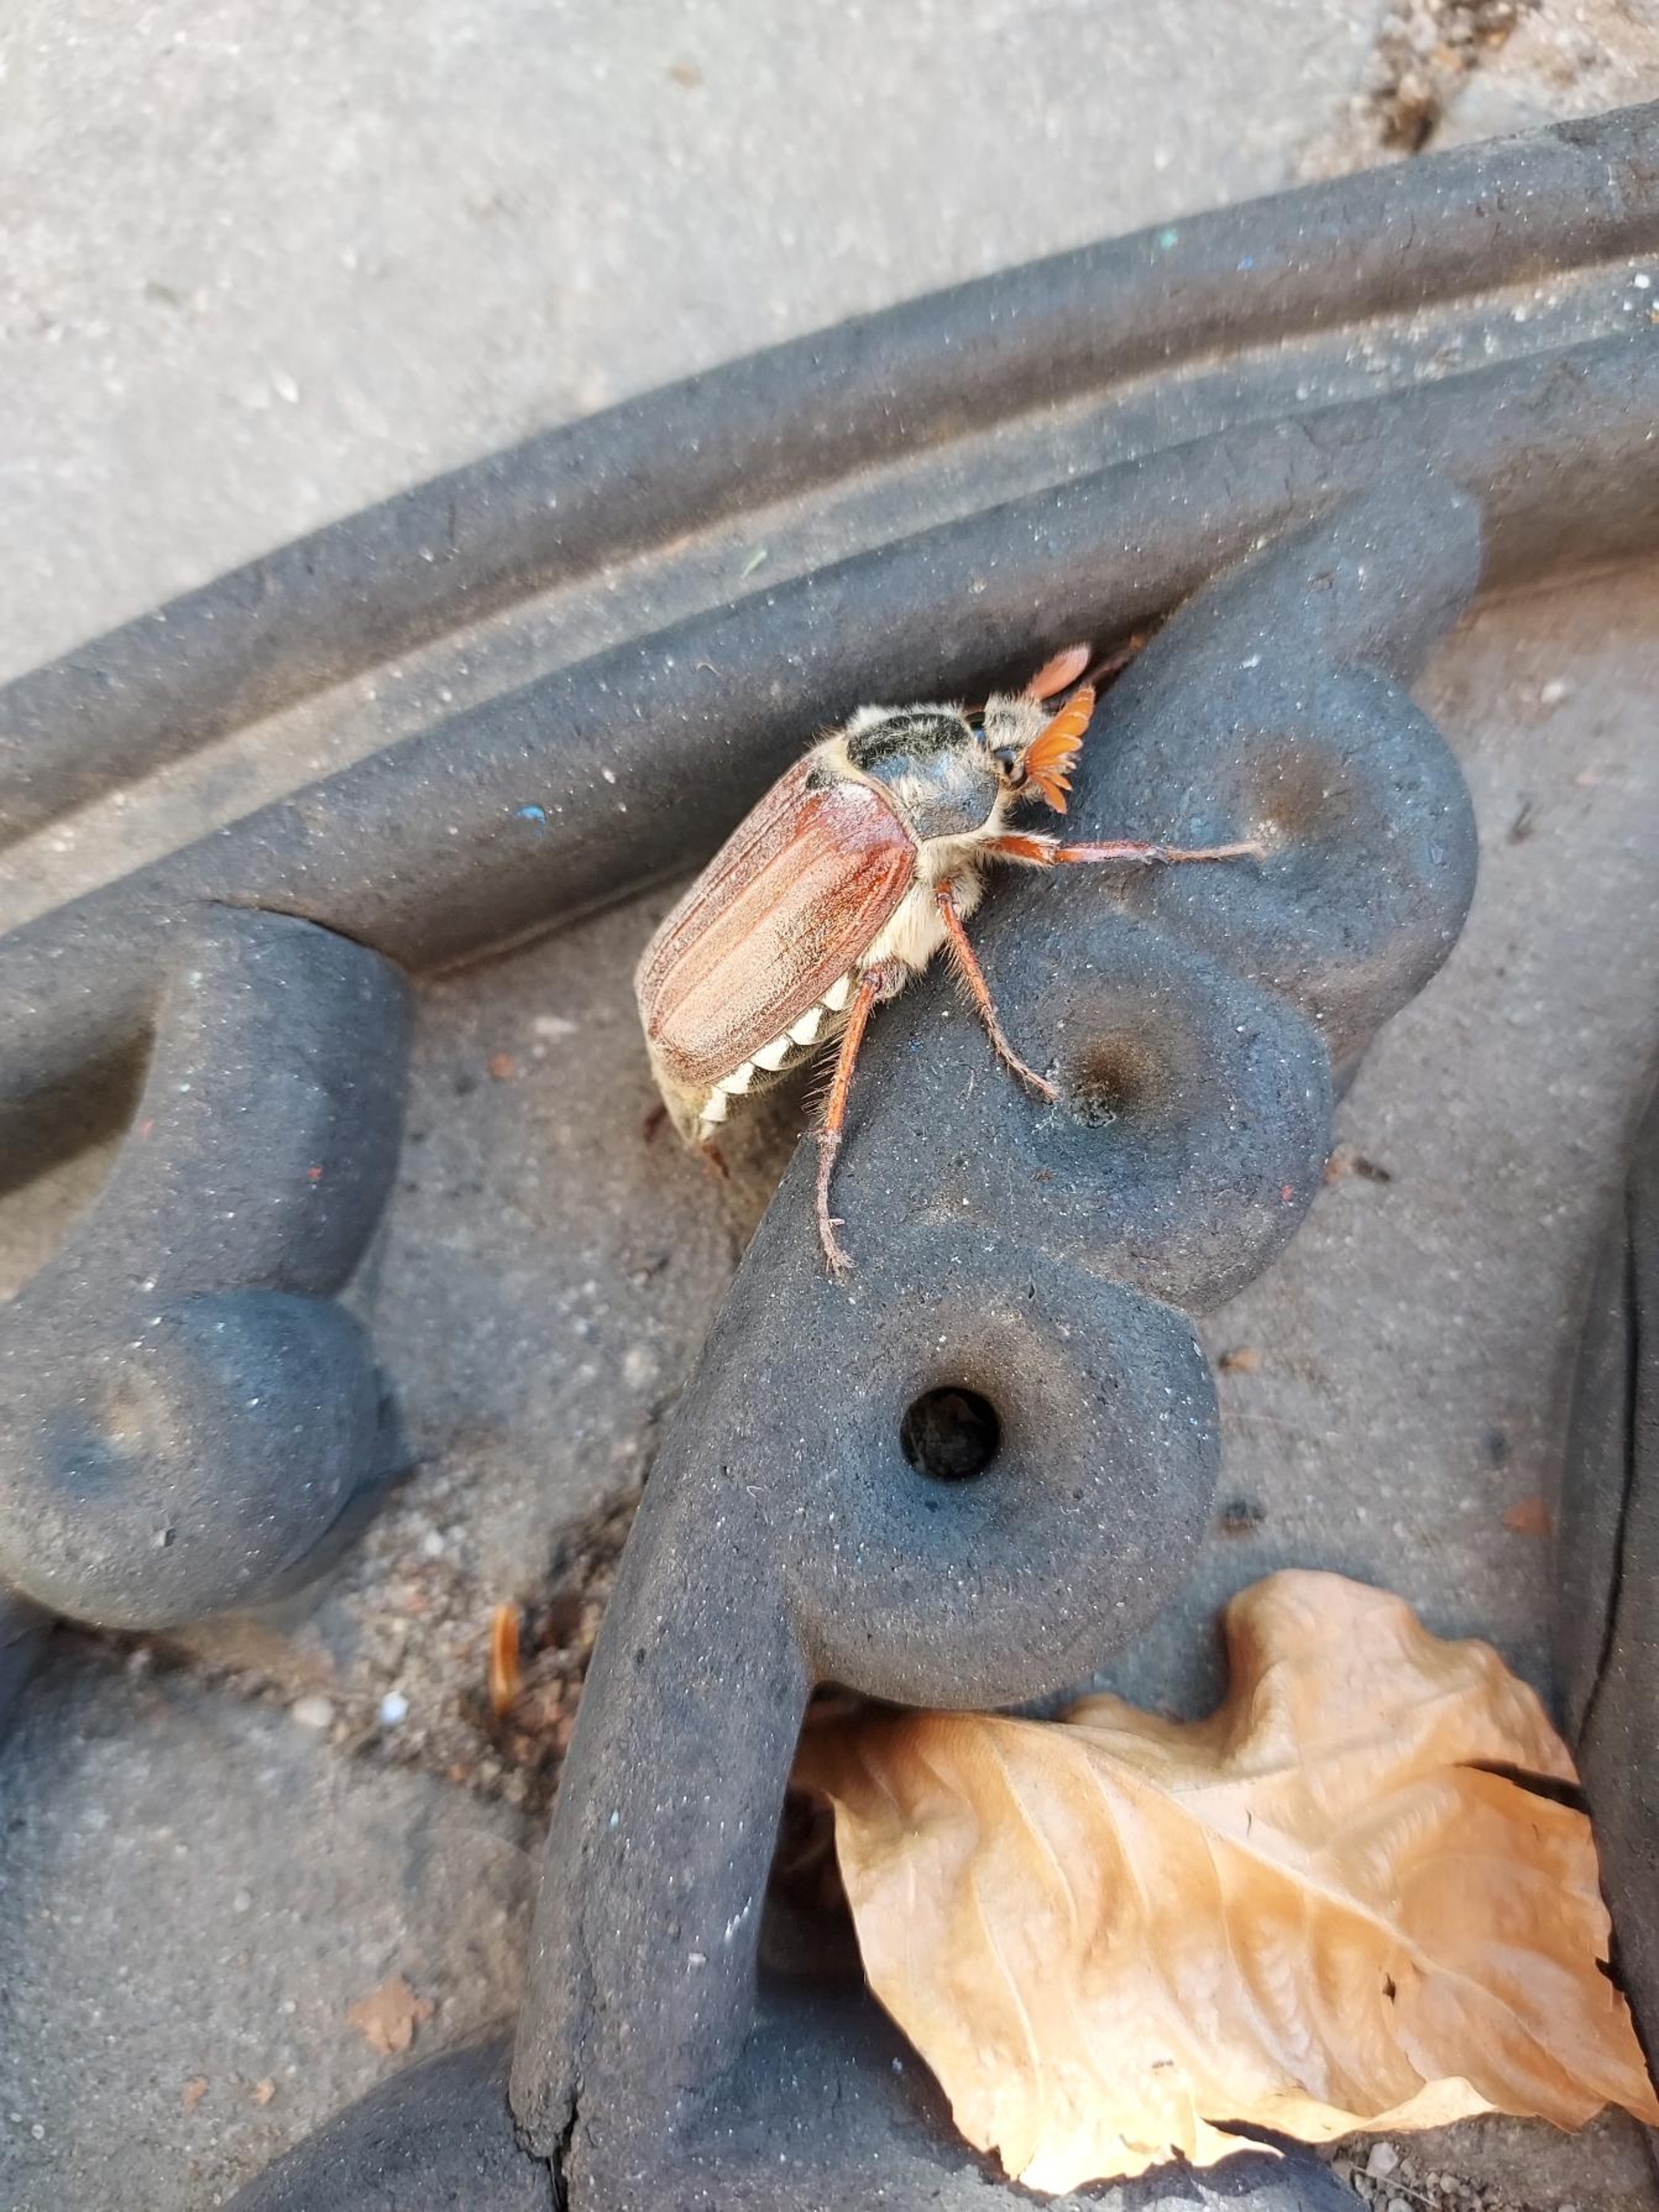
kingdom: Animalia
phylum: Arthropoda
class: Insecta
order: Coleoptera
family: Scarabaeidae
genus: Melolontha
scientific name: Melolontha melolontha
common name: Almindelig oldenborre
